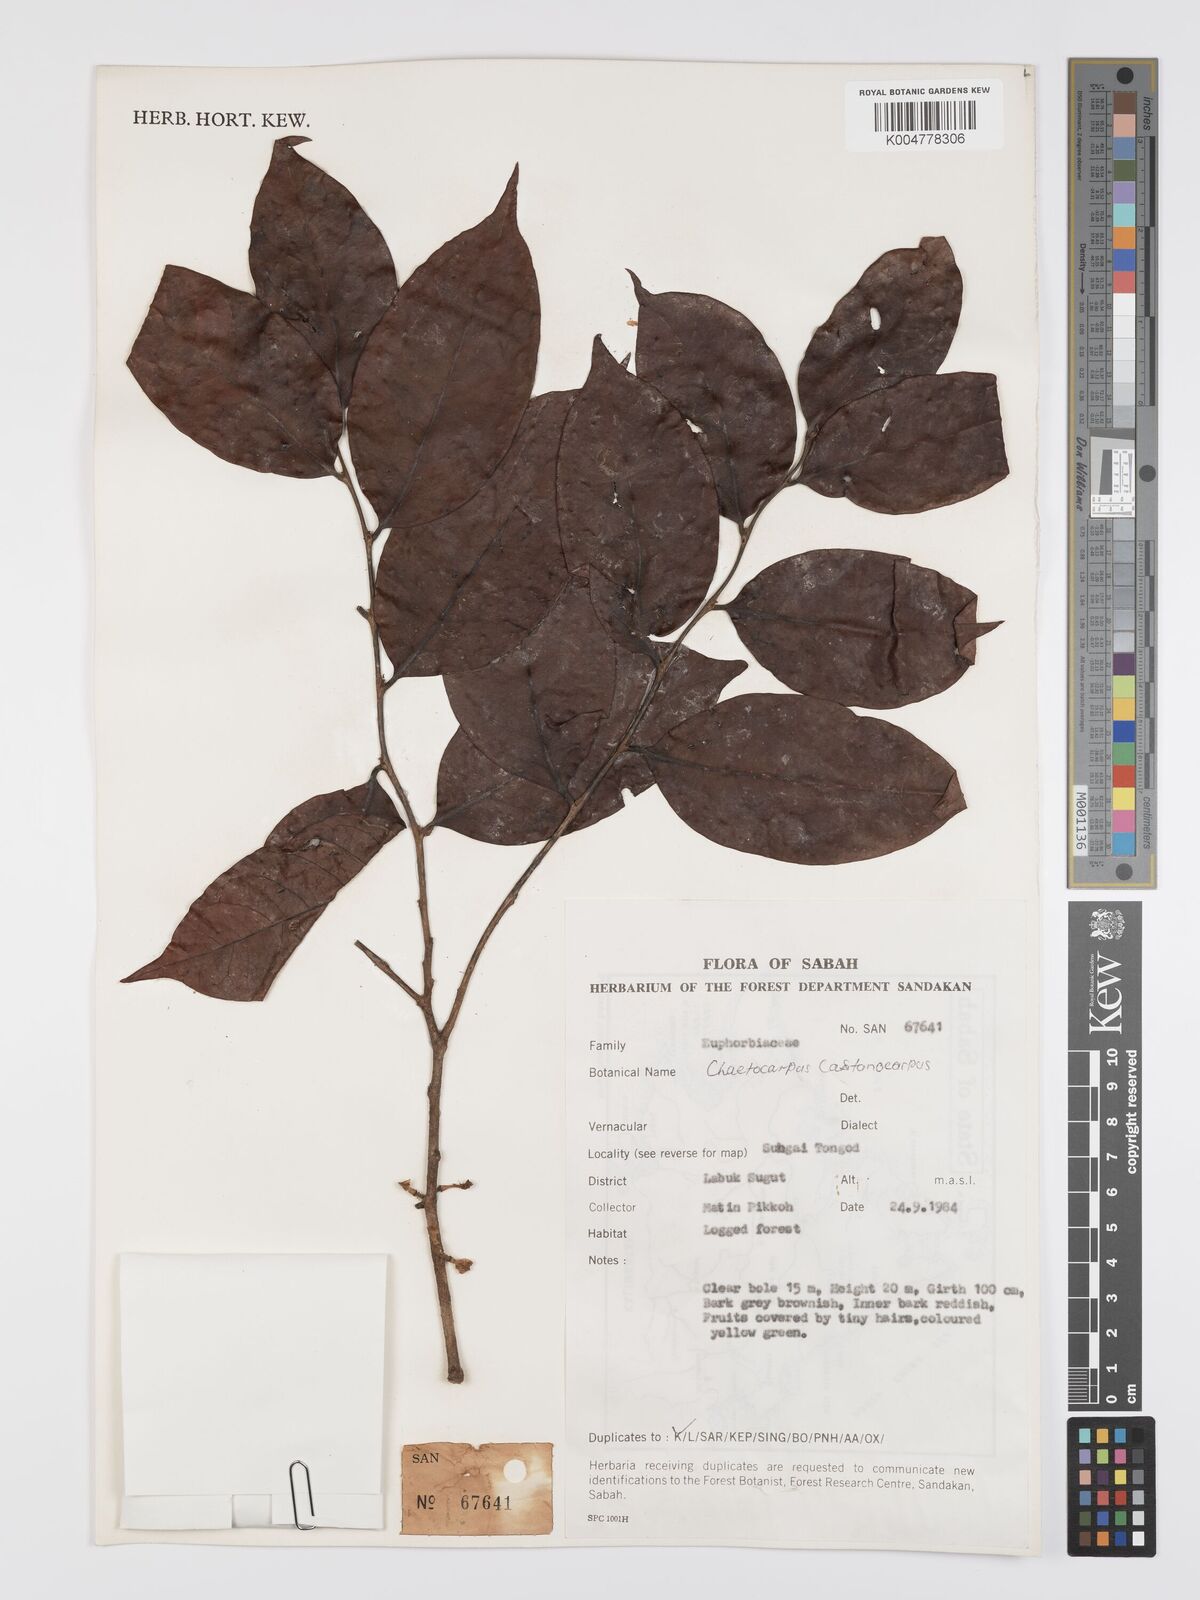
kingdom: Plantae
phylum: Tracheophyta
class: Magnoliopsida
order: Malpighiales
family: Peraceae
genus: Chaetocarpus
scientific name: Chaetocarpus castanocarpus
